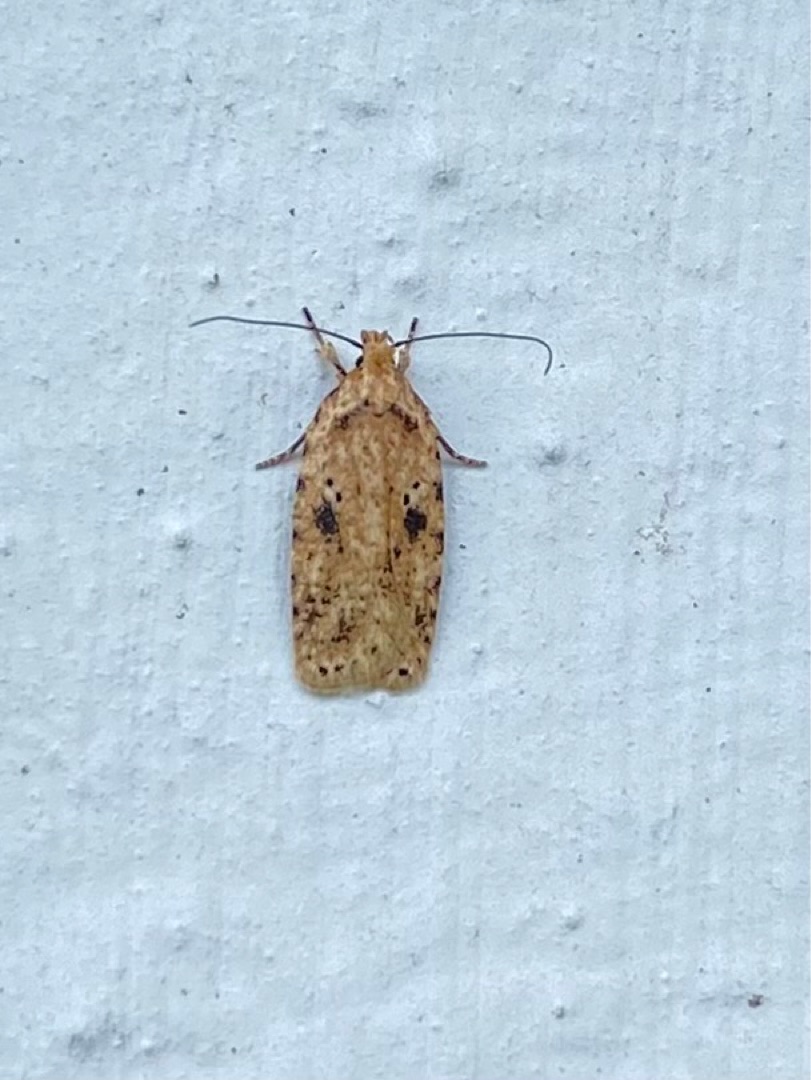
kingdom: Animalia
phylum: Arthropoda
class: Insecta
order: Lepidoptera
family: Depressariidae
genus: Agonopterix
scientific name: Agonopterix arenella
